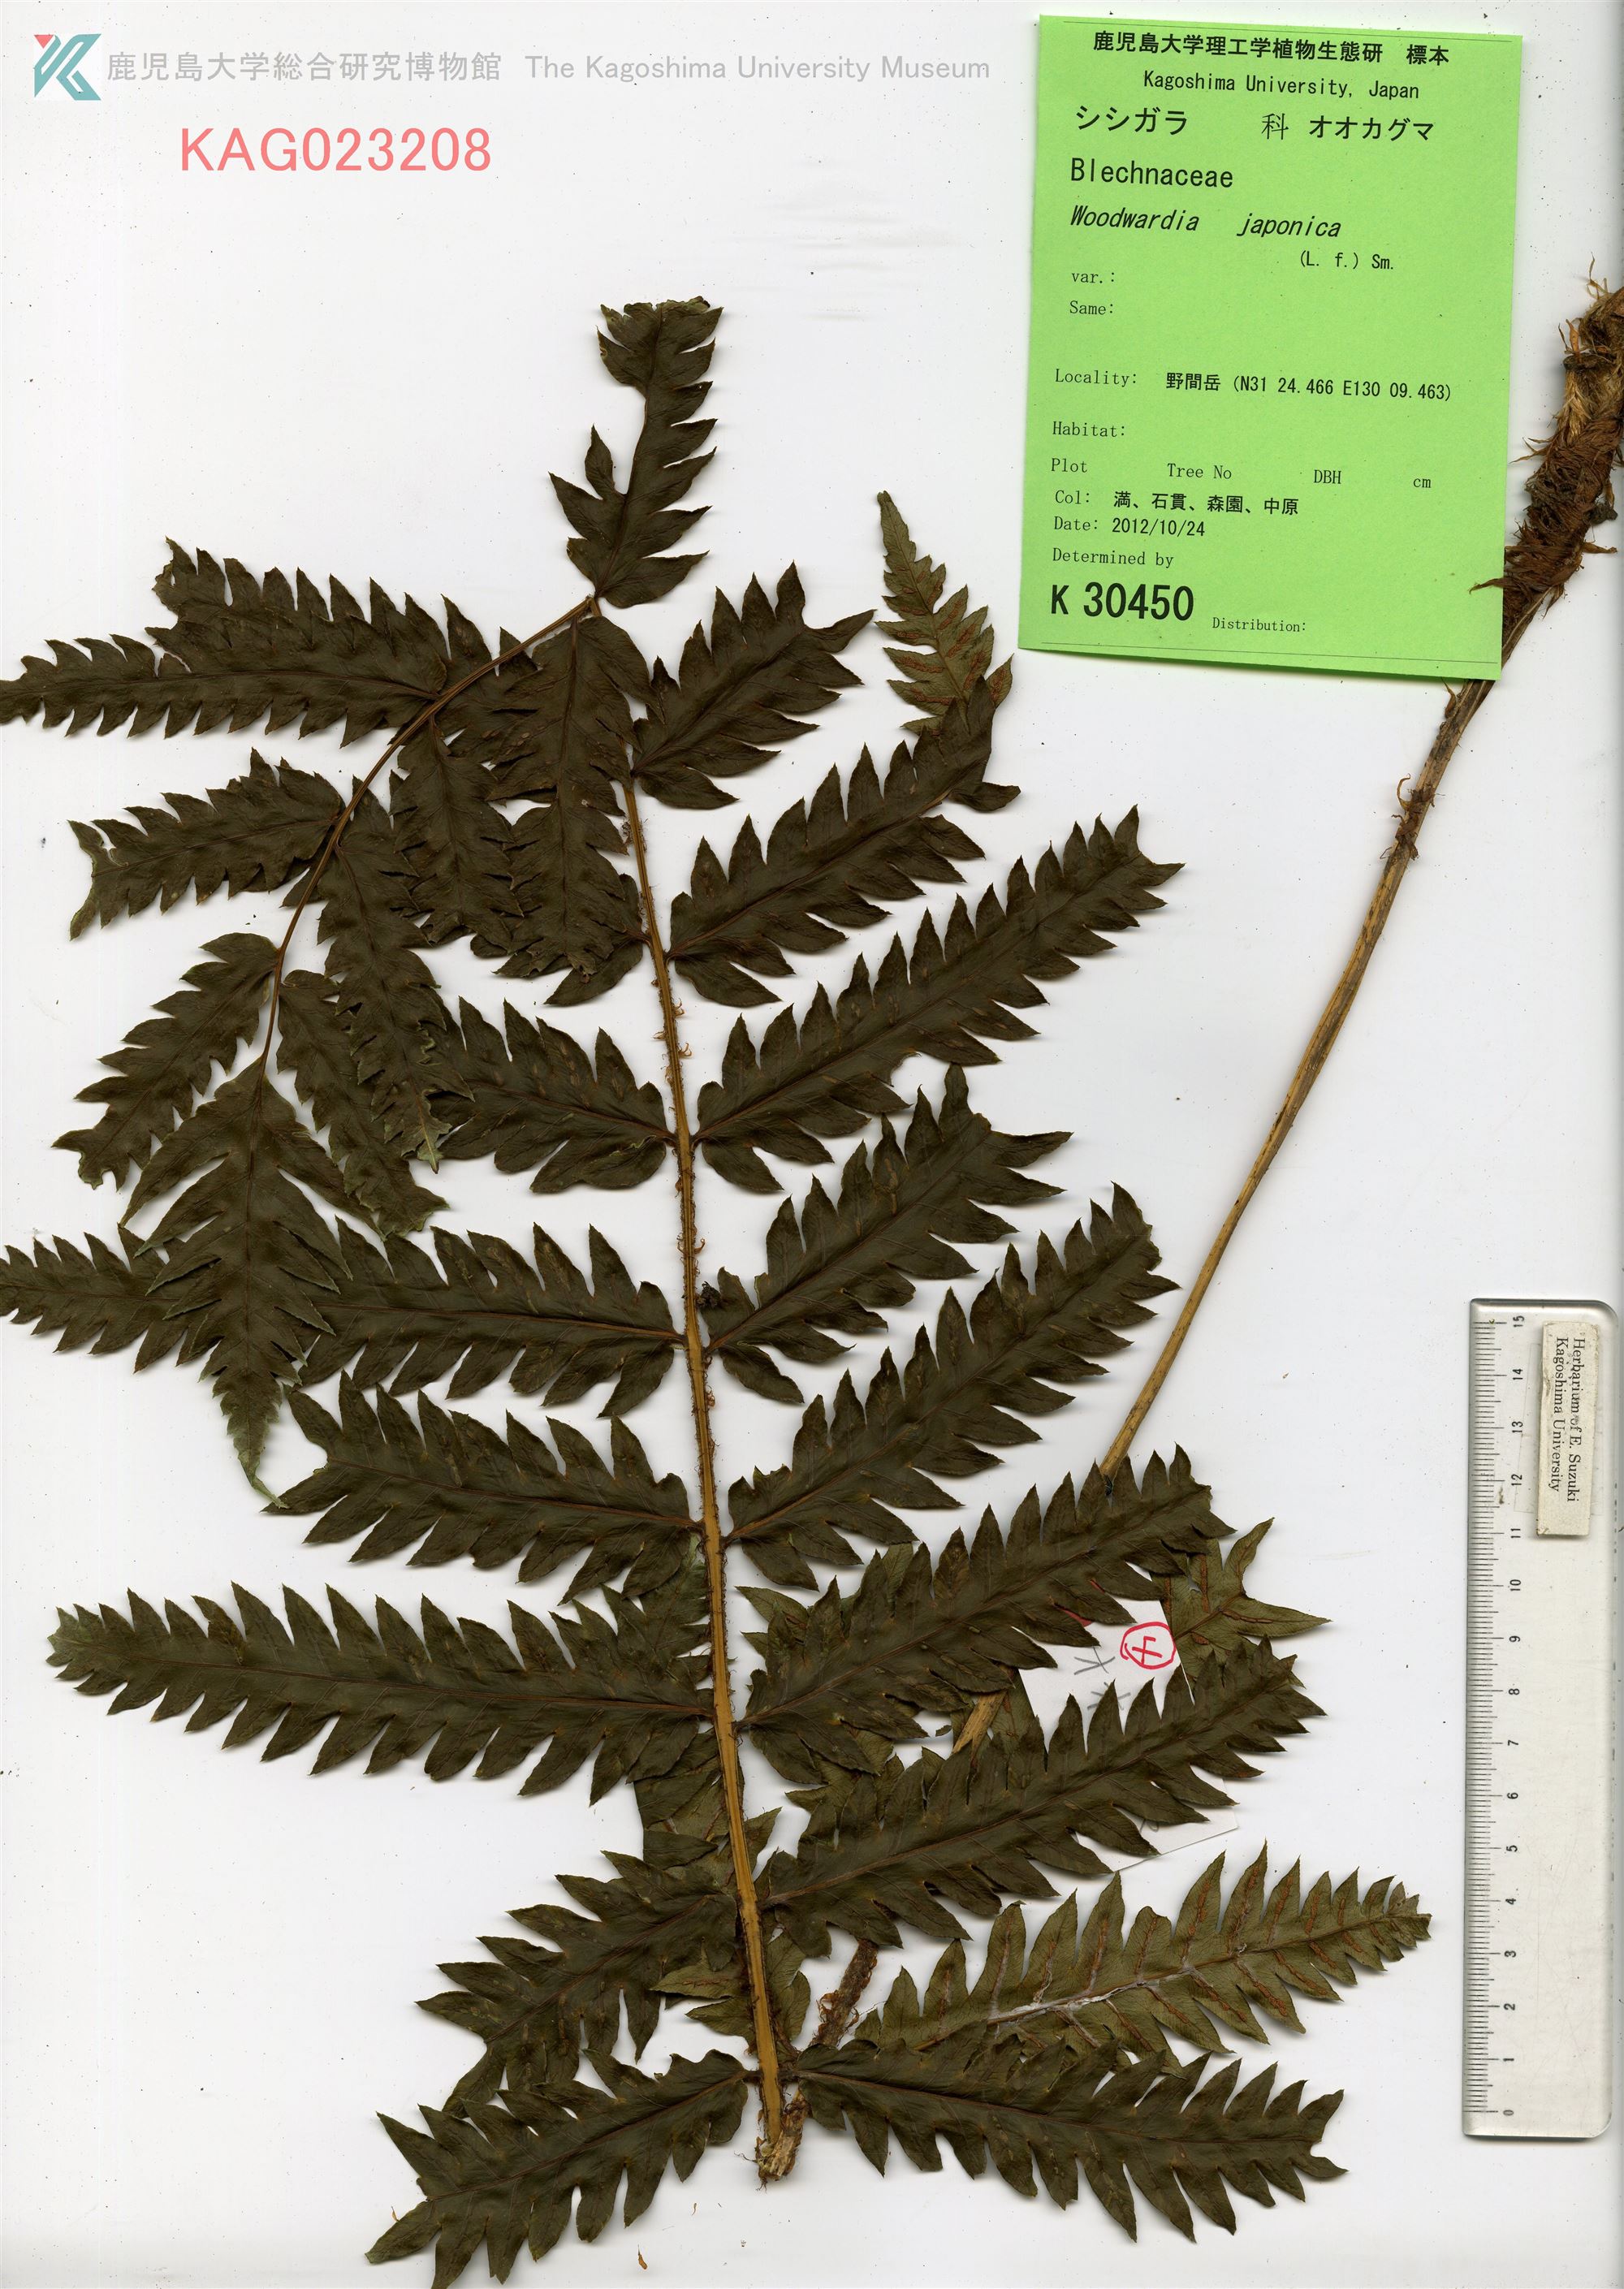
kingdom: Plantae
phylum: Tracheophyta
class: Polypodiopsida
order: Polypodiales
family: Blechnaceae
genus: Woodwardia
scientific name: Woodwardia japonica
